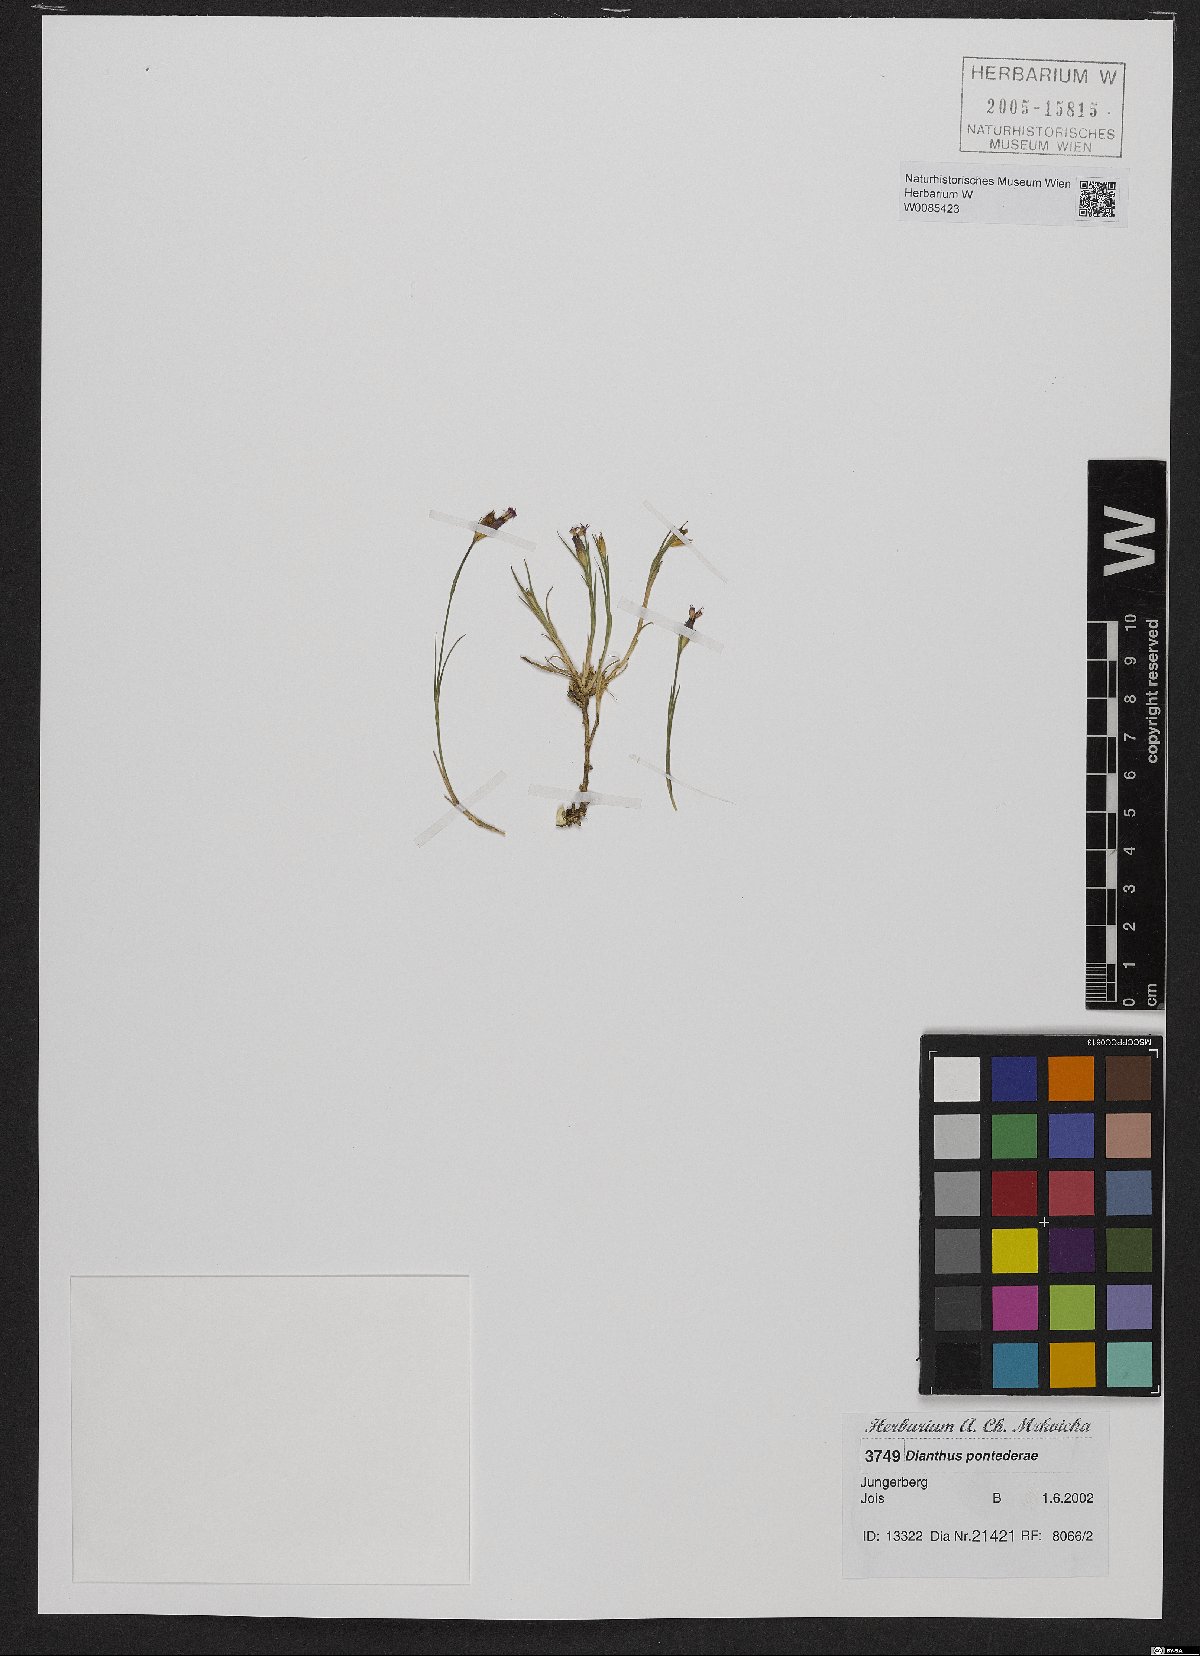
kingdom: Plantae
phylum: Tracheophyta
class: Magnoliopsida
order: Caryophyllales
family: Caryophyllaceae
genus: Dianthus
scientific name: Dianthus pontederae
